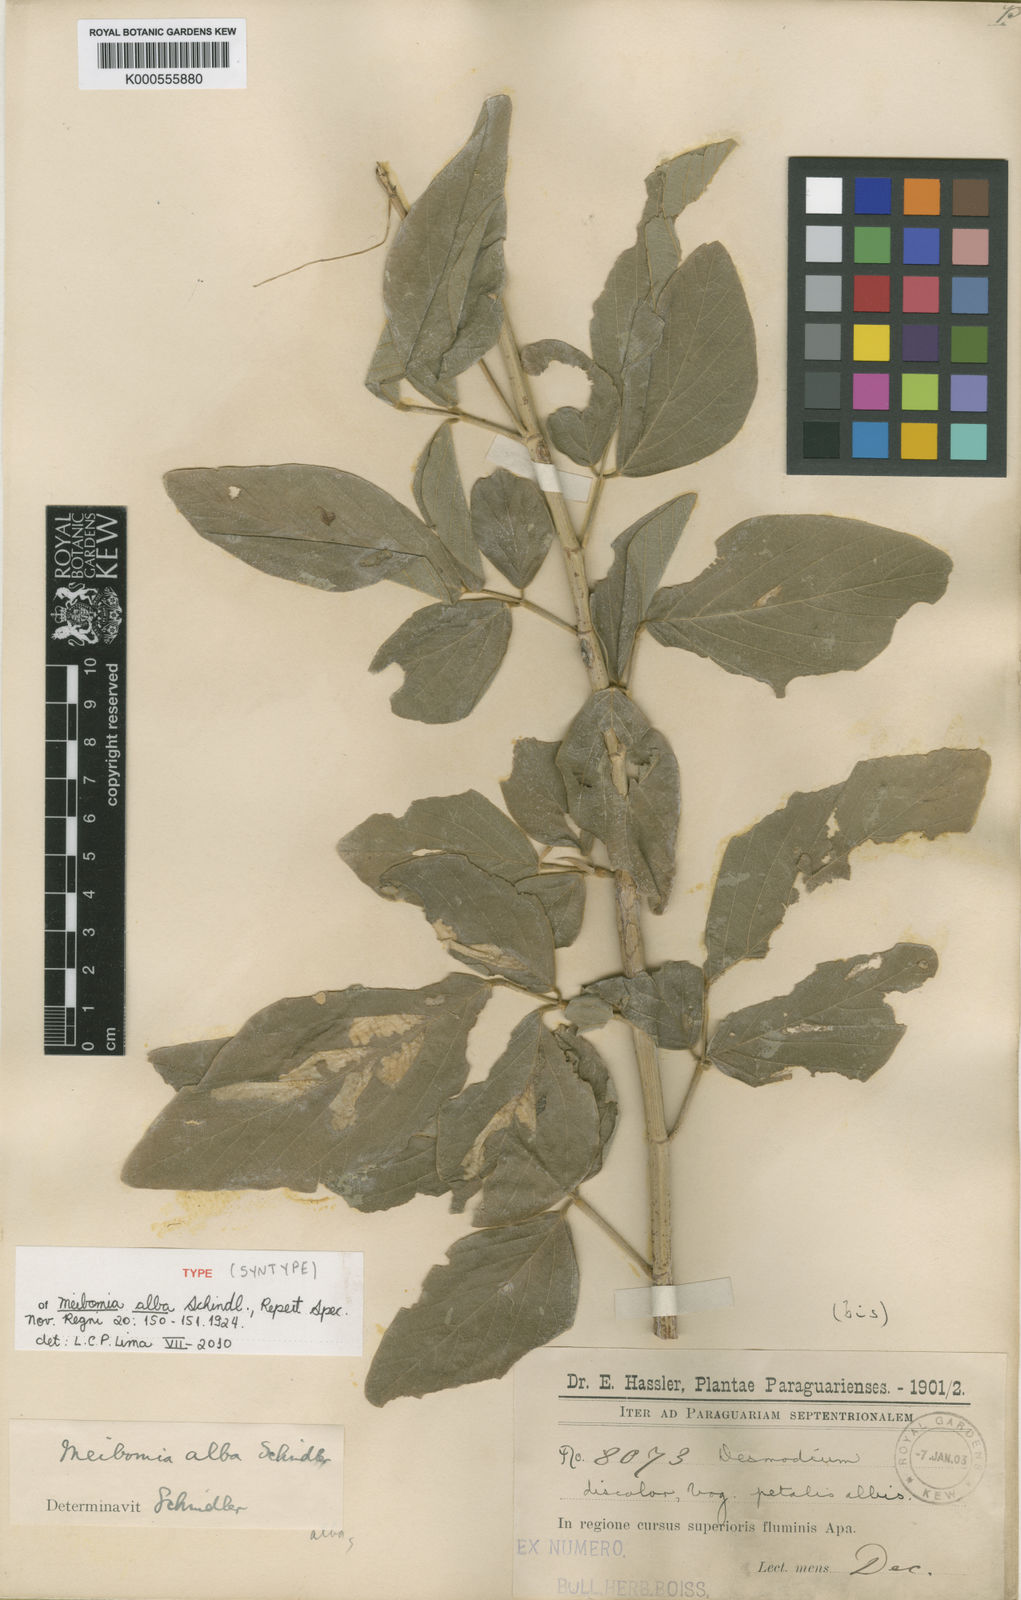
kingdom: Plantae
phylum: Tracheophyta
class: Magnoliopsida
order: Fabales
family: Fabaceae
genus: Desmodium
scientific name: Desmodium hassleri
